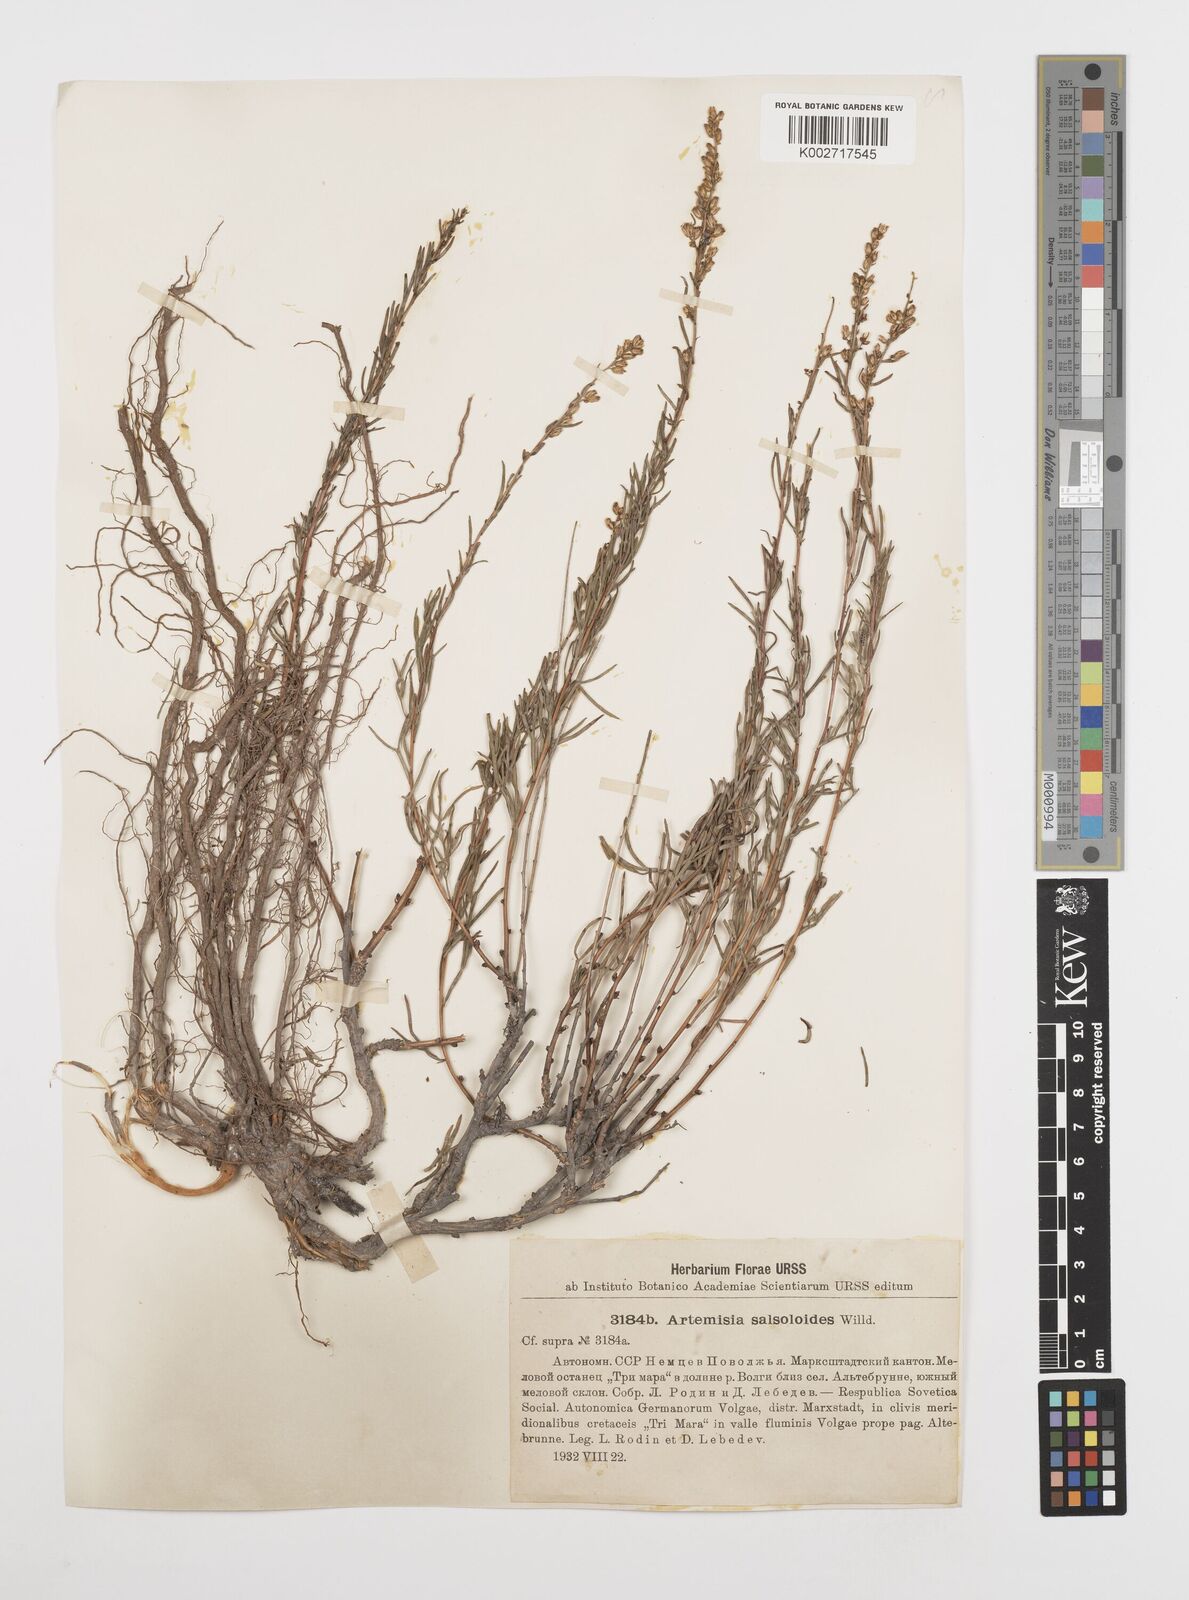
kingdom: Plantae
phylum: Tracheophyta
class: Magnoliopsida
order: Asterales
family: Asteraceae
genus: Artemisia
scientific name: Artemisia salsoloides
